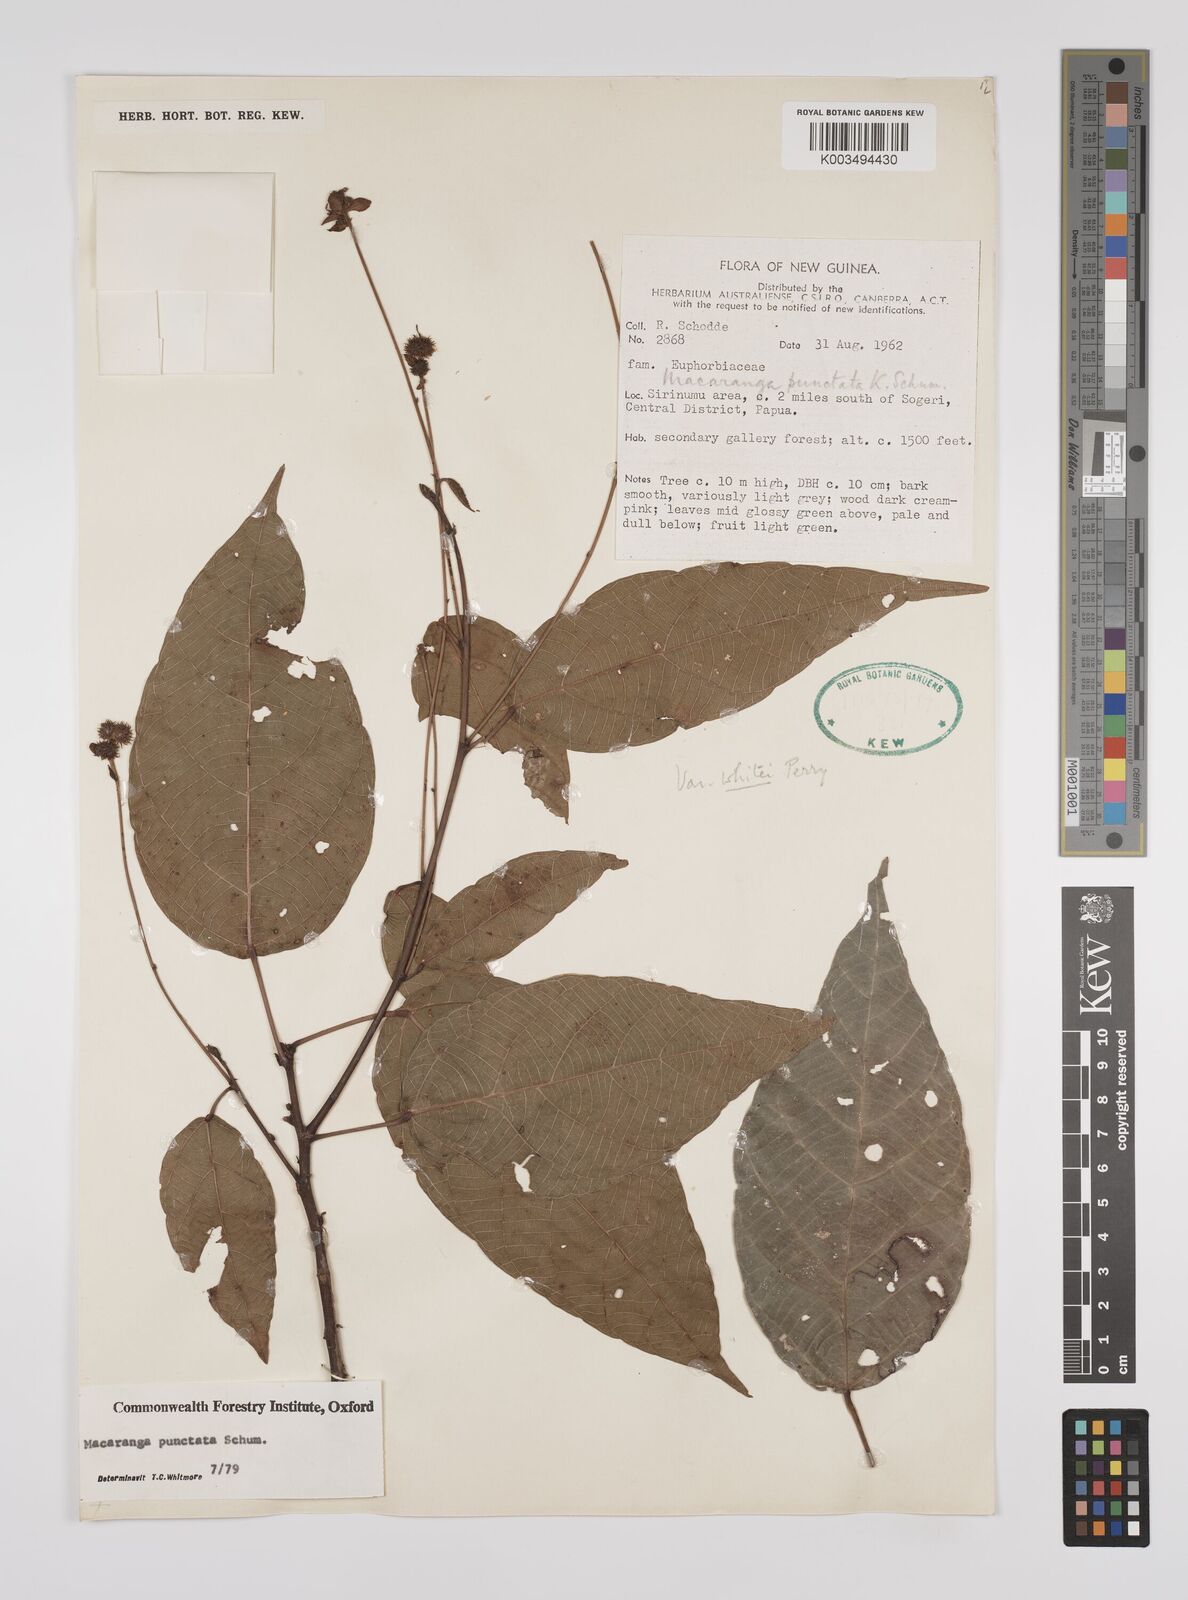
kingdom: Plantae
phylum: Tracheophyta
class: Magnoliopsida
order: Malpighiales
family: Euphorbiaceae
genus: Macaranga
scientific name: Macaranga punctata
